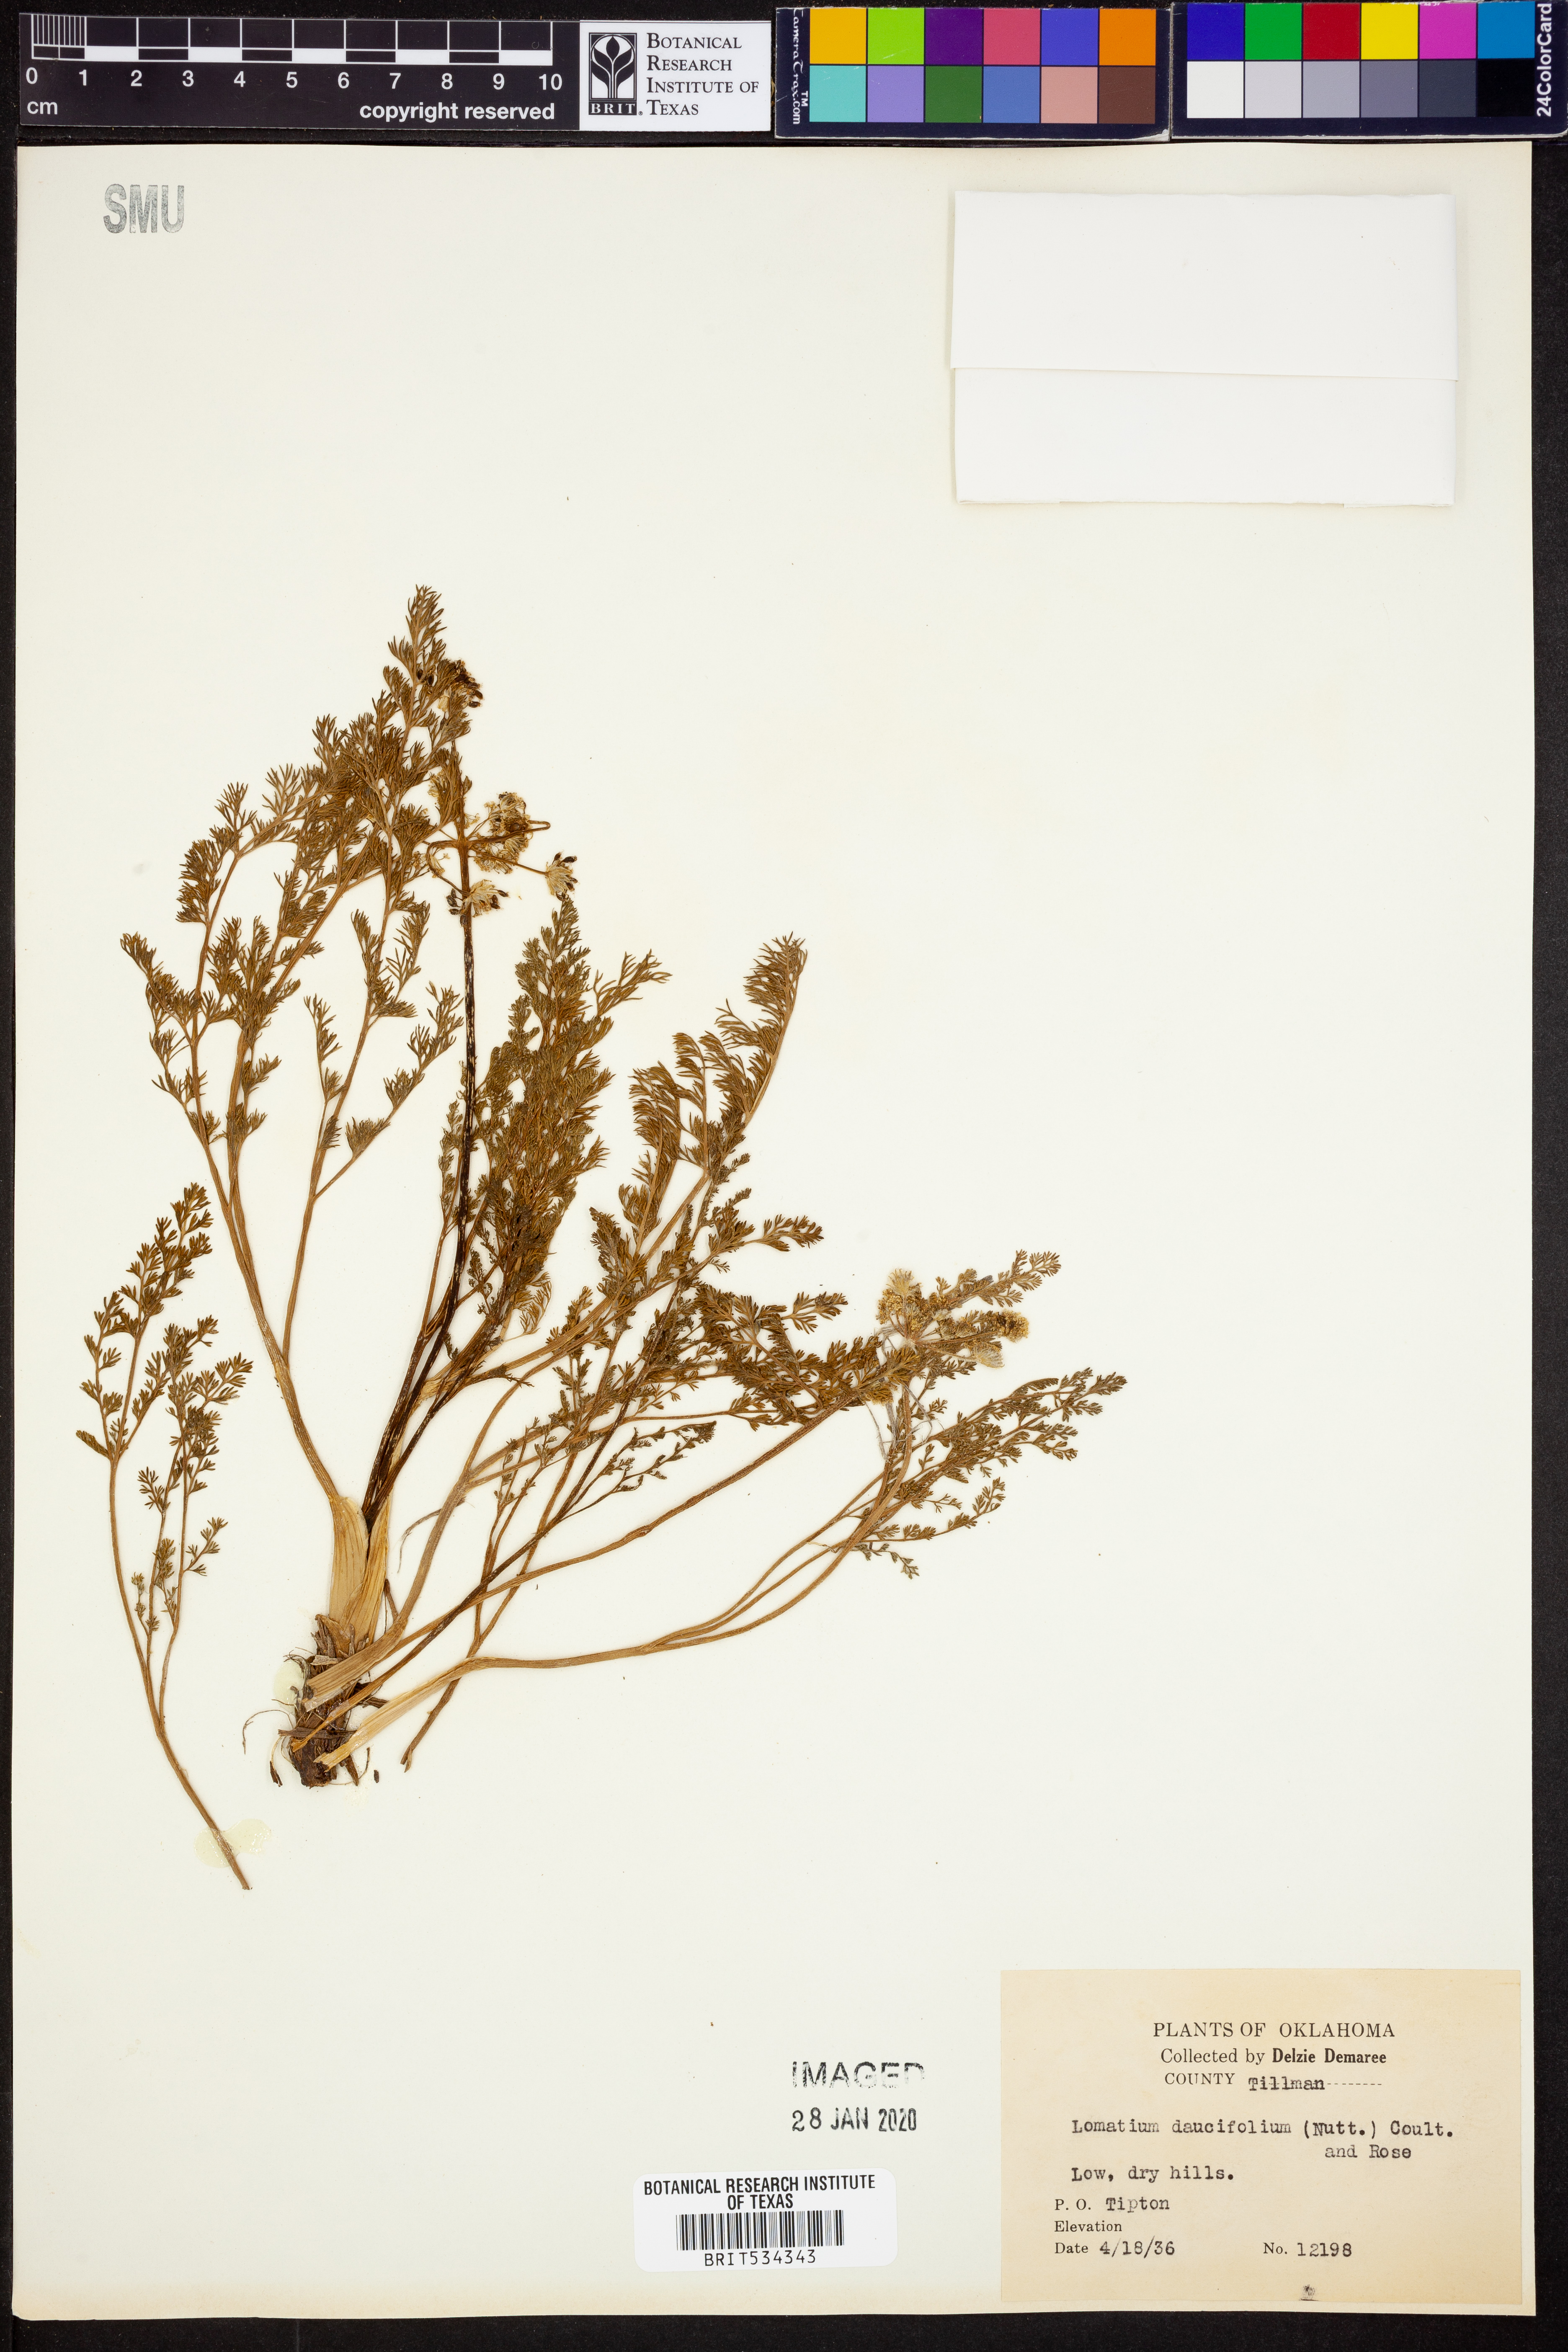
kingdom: Plantae
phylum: Tracheophyta
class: Magnoliopsida
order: Apiales
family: Apiaceae
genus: Lomatium
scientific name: Lomatium foeniculaceum
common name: Desert-parsley
